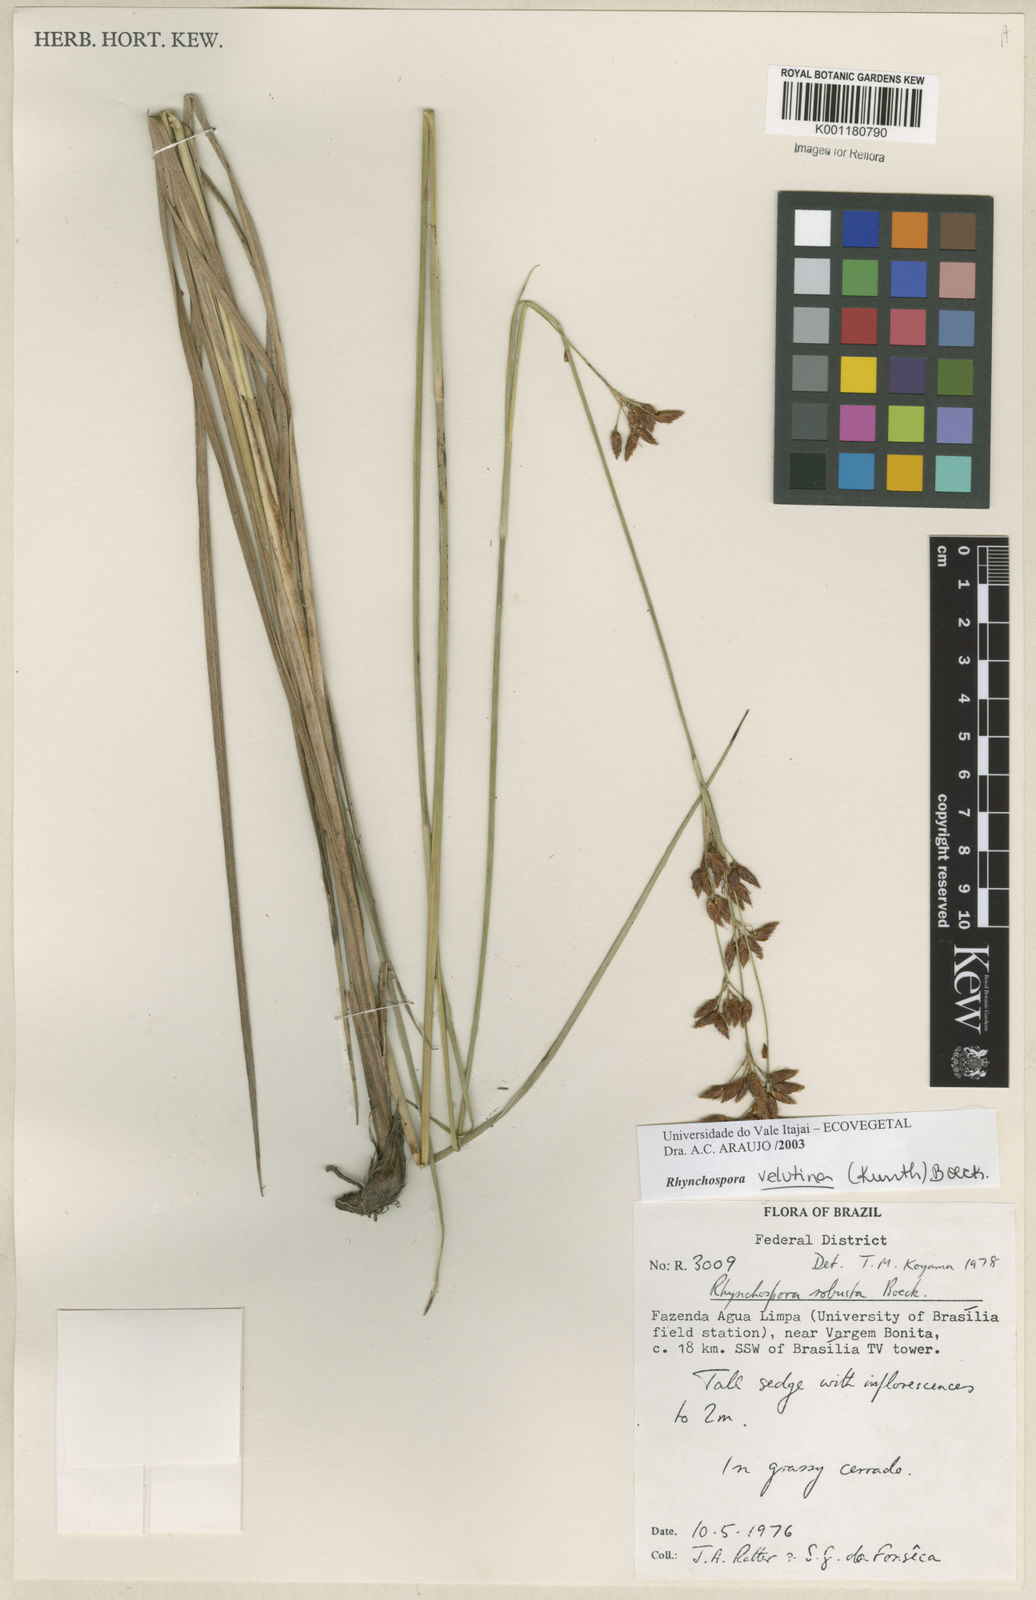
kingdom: Plantae
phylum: Tracheophyta
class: Liliopsida
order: Poales
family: Cyperaceae
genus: Rhynchospora
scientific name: Rhynchospora velutina
